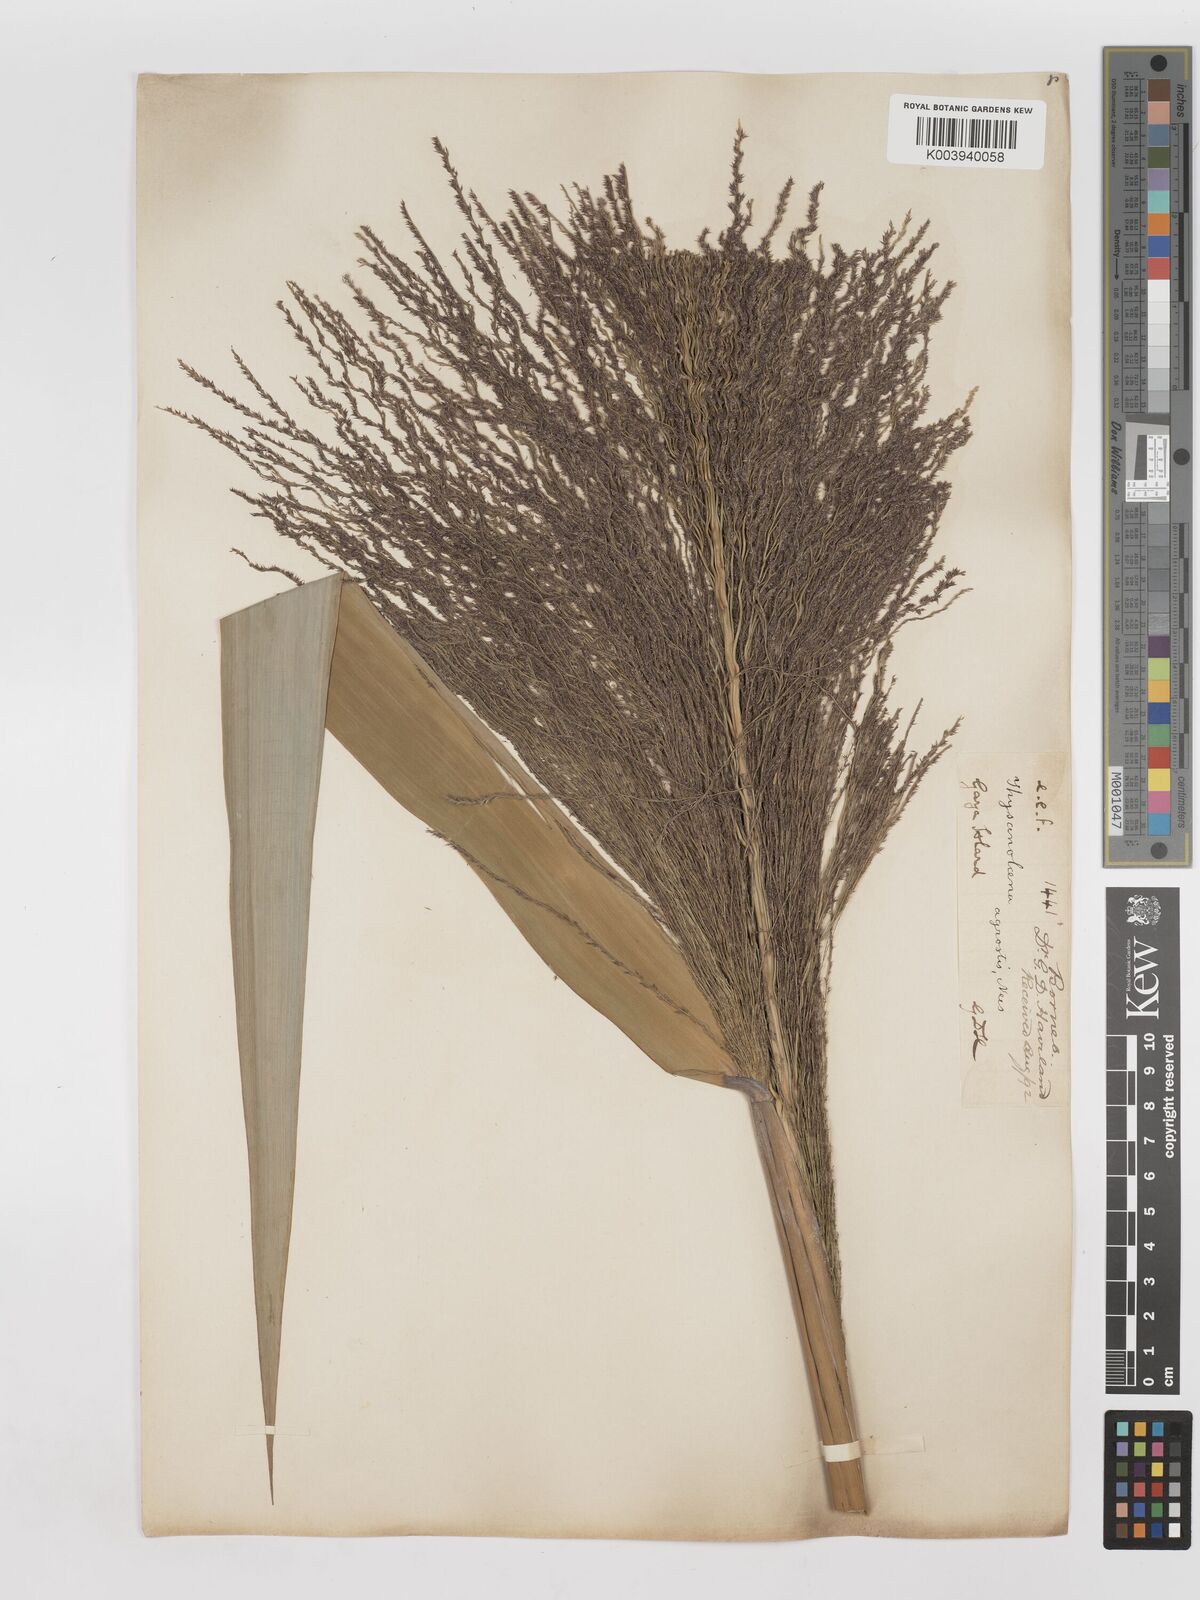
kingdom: Plantae
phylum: Tracheophyta
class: Liliopsida
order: Poales
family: Poaceae
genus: Thysanolaena
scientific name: Thysanolaena latifolia
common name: Tiger grass
